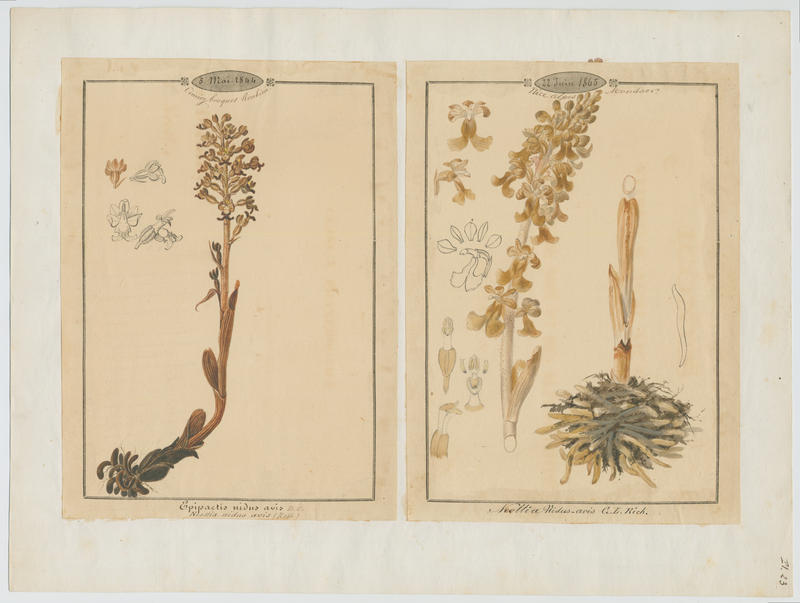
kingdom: Plantae
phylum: Tracheophyta
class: Liliopsida
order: Asparagales
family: Orchidaceae
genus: Neottia
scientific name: Neottia nidus-avis
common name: Bird's-nest orchid
